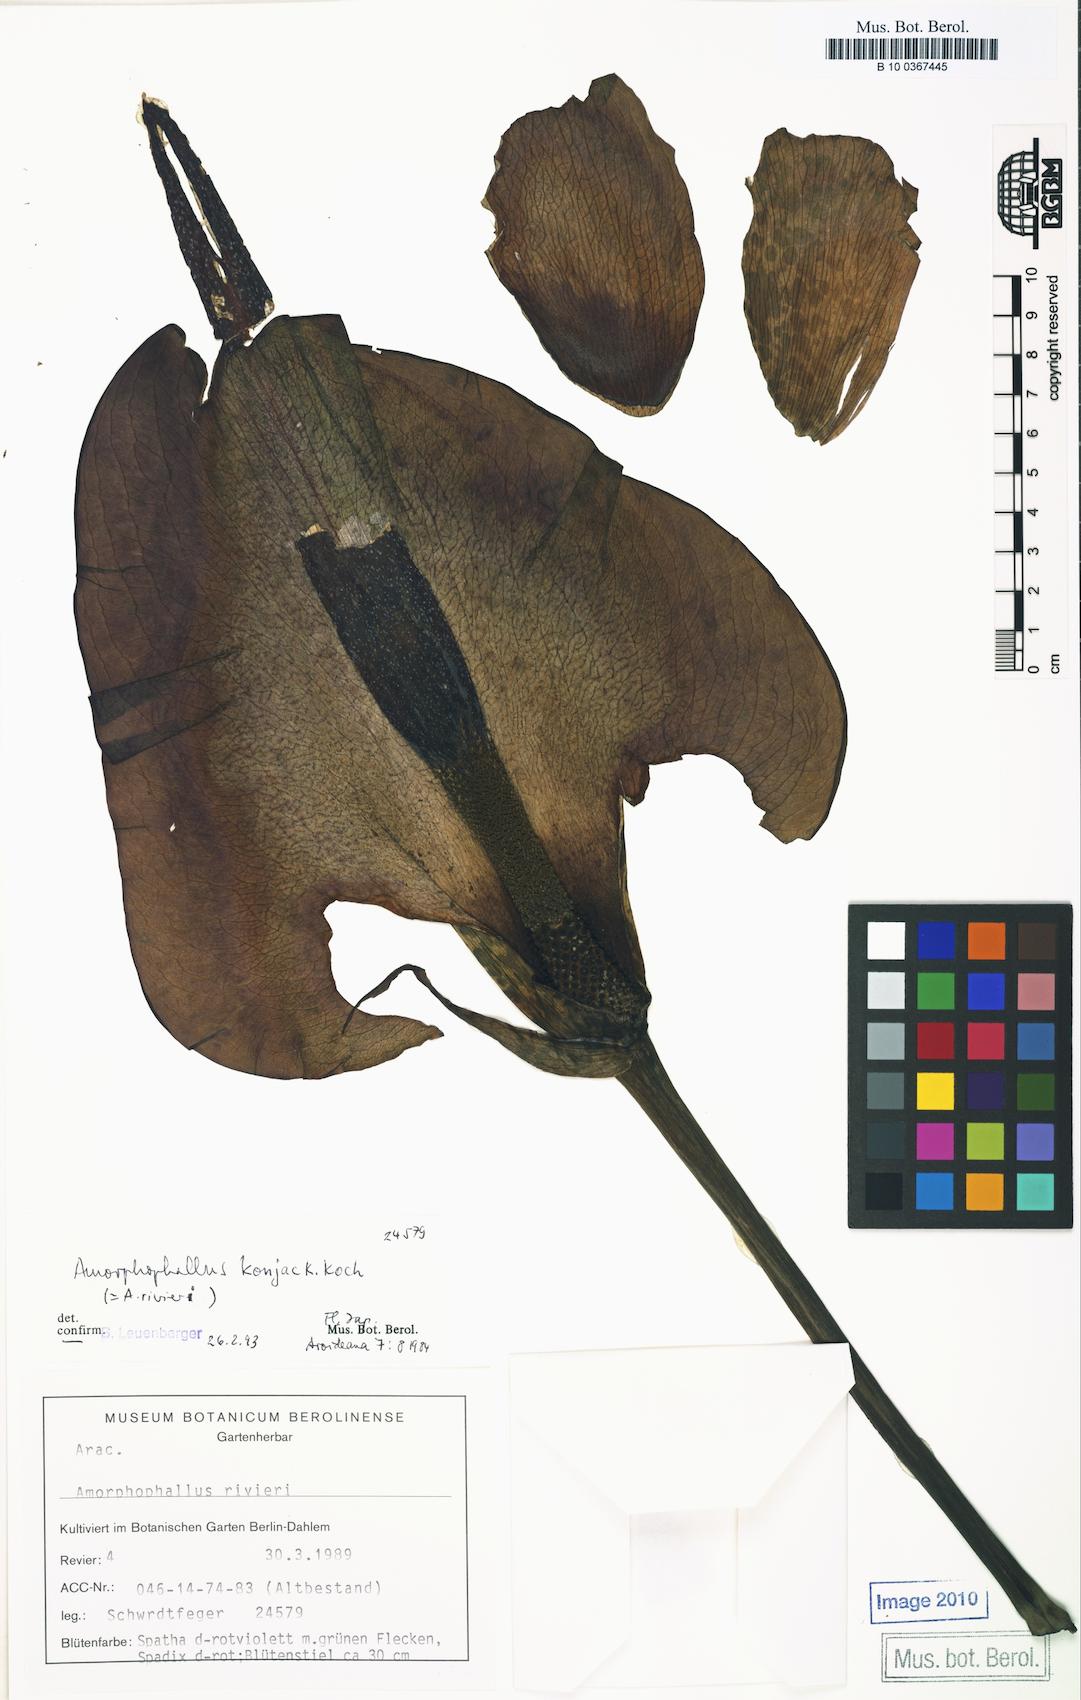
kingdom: Plantae
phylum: Tracheophyta
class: Liliopsida
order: Alismatales
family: Araceae
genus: Amorphophallus
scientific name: Amorphophallus konjac
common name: Umbrella arum
